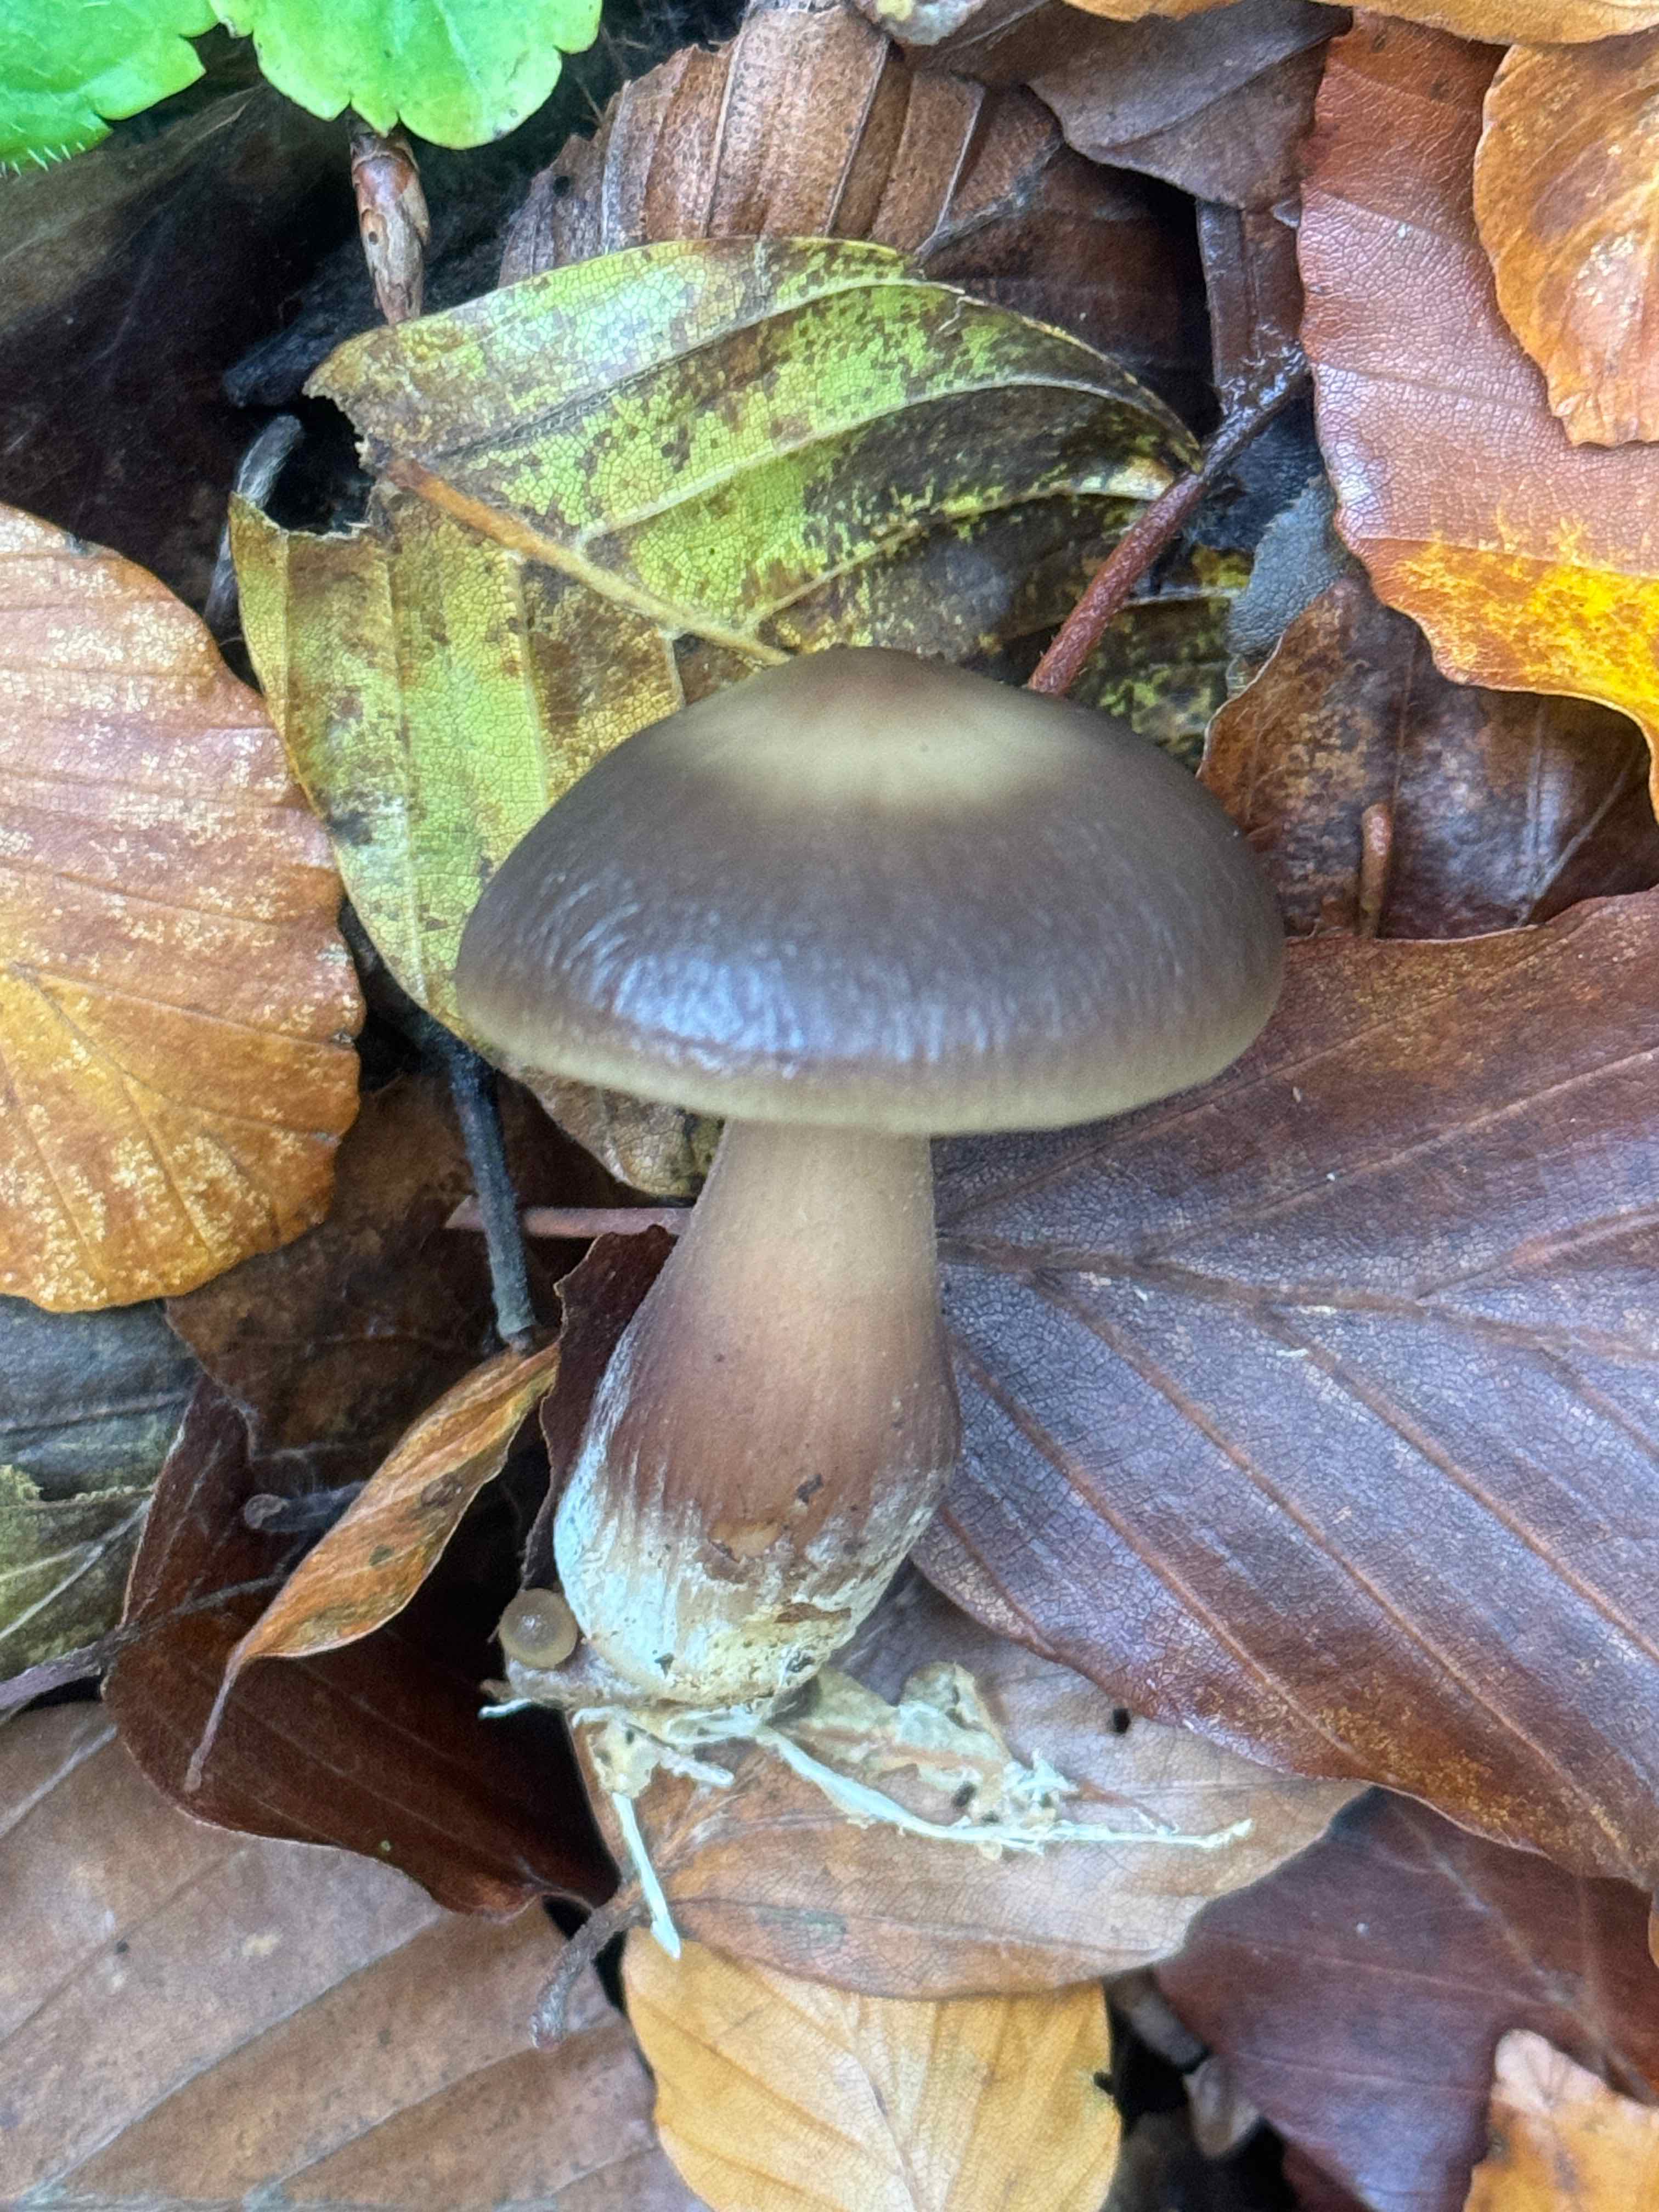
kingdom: Fungi
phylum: Basidiomycota
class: Agaricomycetes
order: Agaricales
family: Omphalotaceae
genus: Rhodocollybia
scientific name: Rhodocollybia butyracea
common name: keglestokket fladhat
